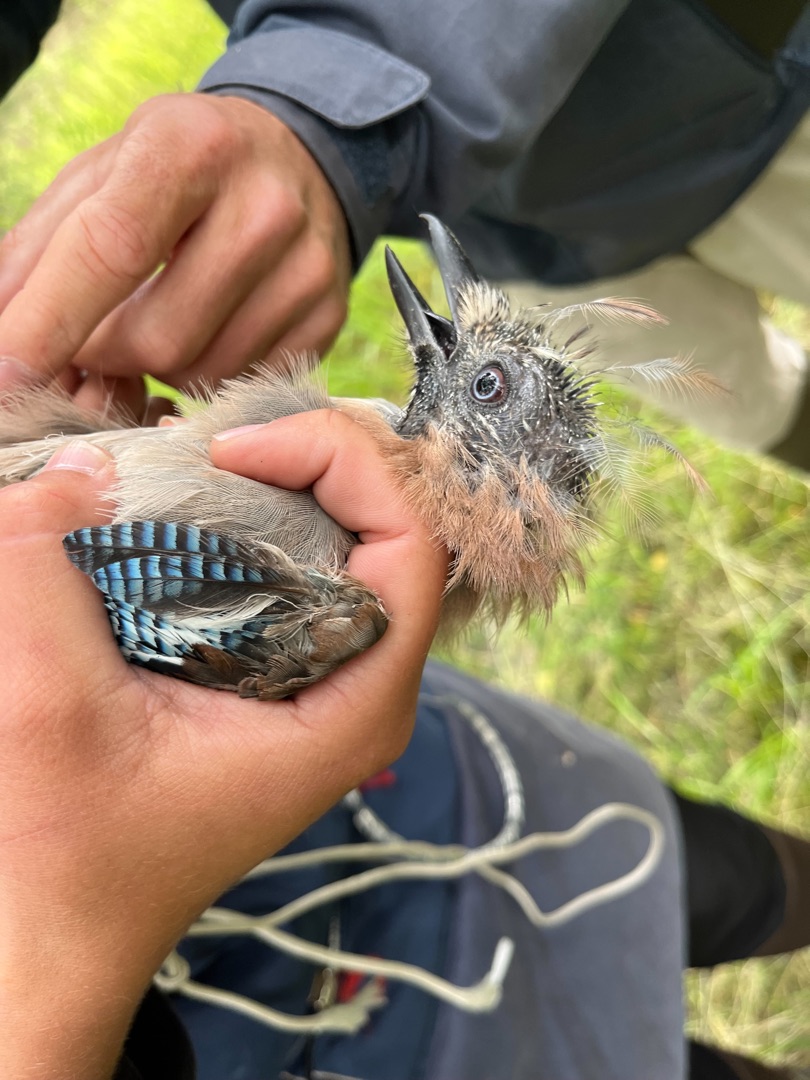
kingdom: Animalia
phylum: Chordata
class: Aves
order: Passeriformes
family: Corvidae
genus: Garrulus
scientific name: Garrulus glandarius
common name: Skovskade
